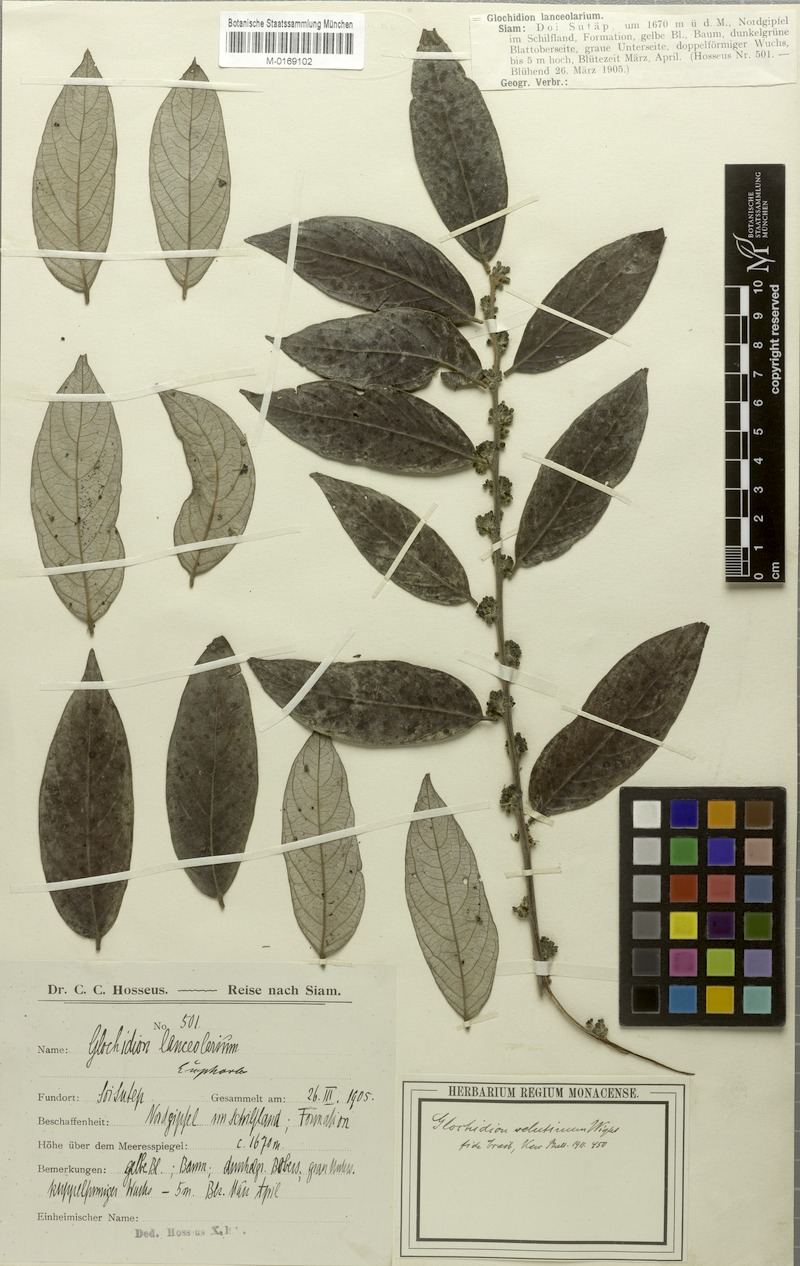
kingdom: Plantae
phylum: Tracheophyta
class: Magnoliopsida
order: Malpighiales
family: Phyllanthaceae
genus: Glochidion
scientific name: Glochidion lanceolarium
